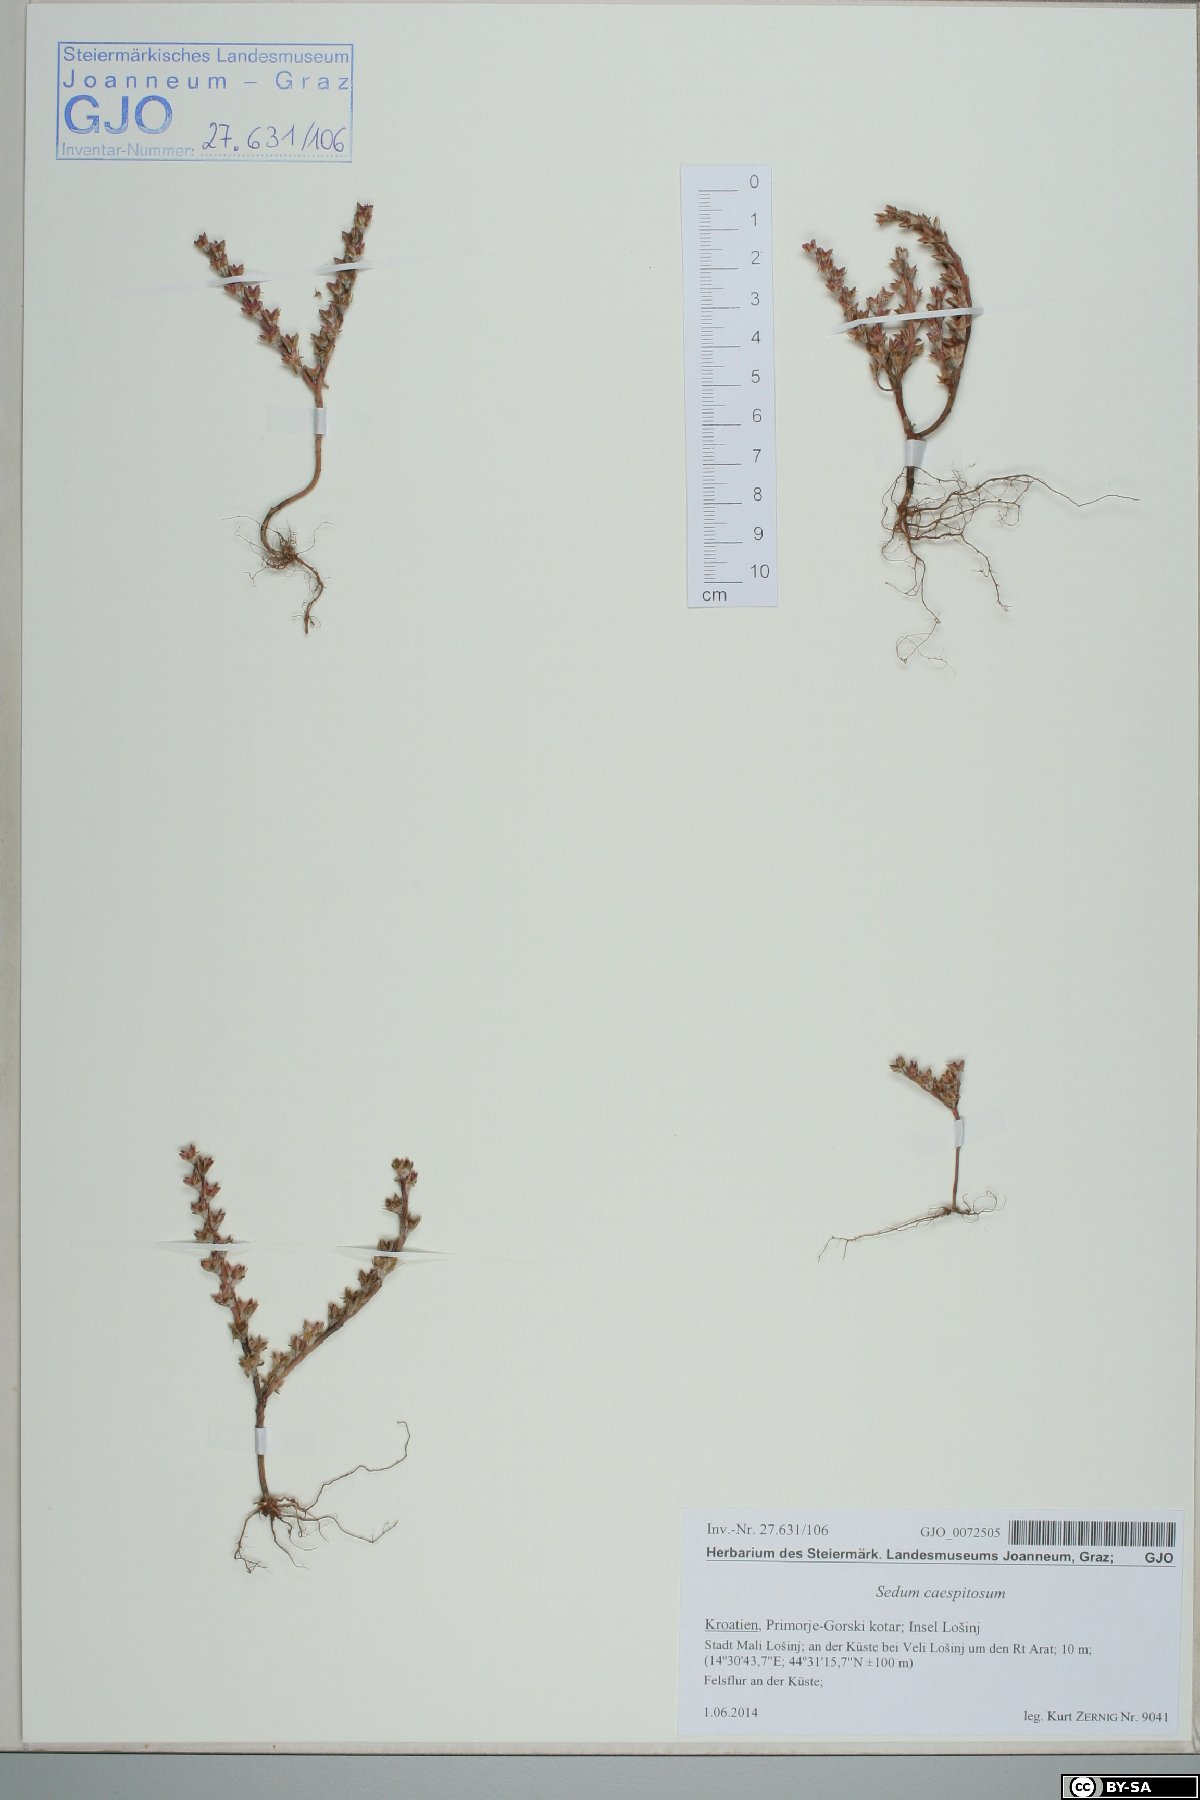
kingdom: Plantae
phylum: Tracheophyta
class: Magnoliopsida
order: Saxifragales
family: Crassulaceae
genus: Sedum
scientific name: Sedum cespitosum
